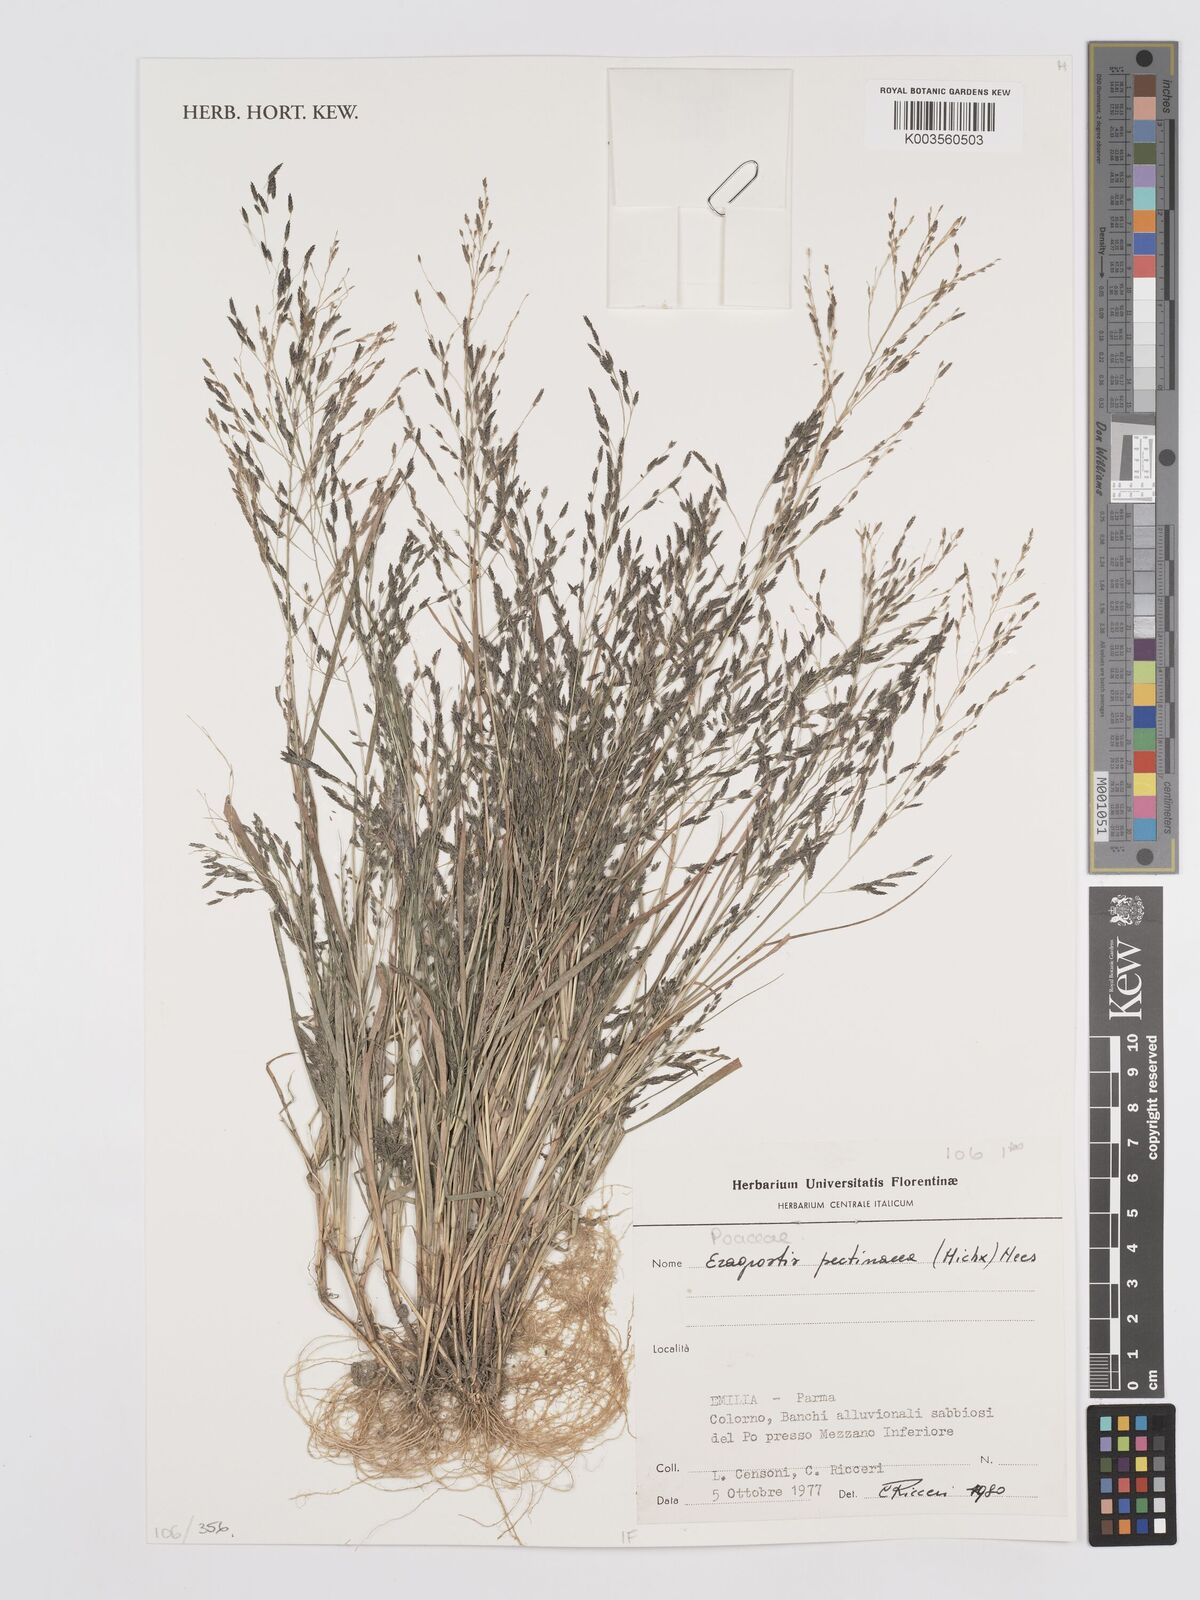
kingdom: Plantae
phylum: Tracheophyta
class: Liliopsida
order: Poales
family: Poaceae
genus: Eragrostis
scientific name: Eragrostis pectinacea
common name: Tufted lovegrass
